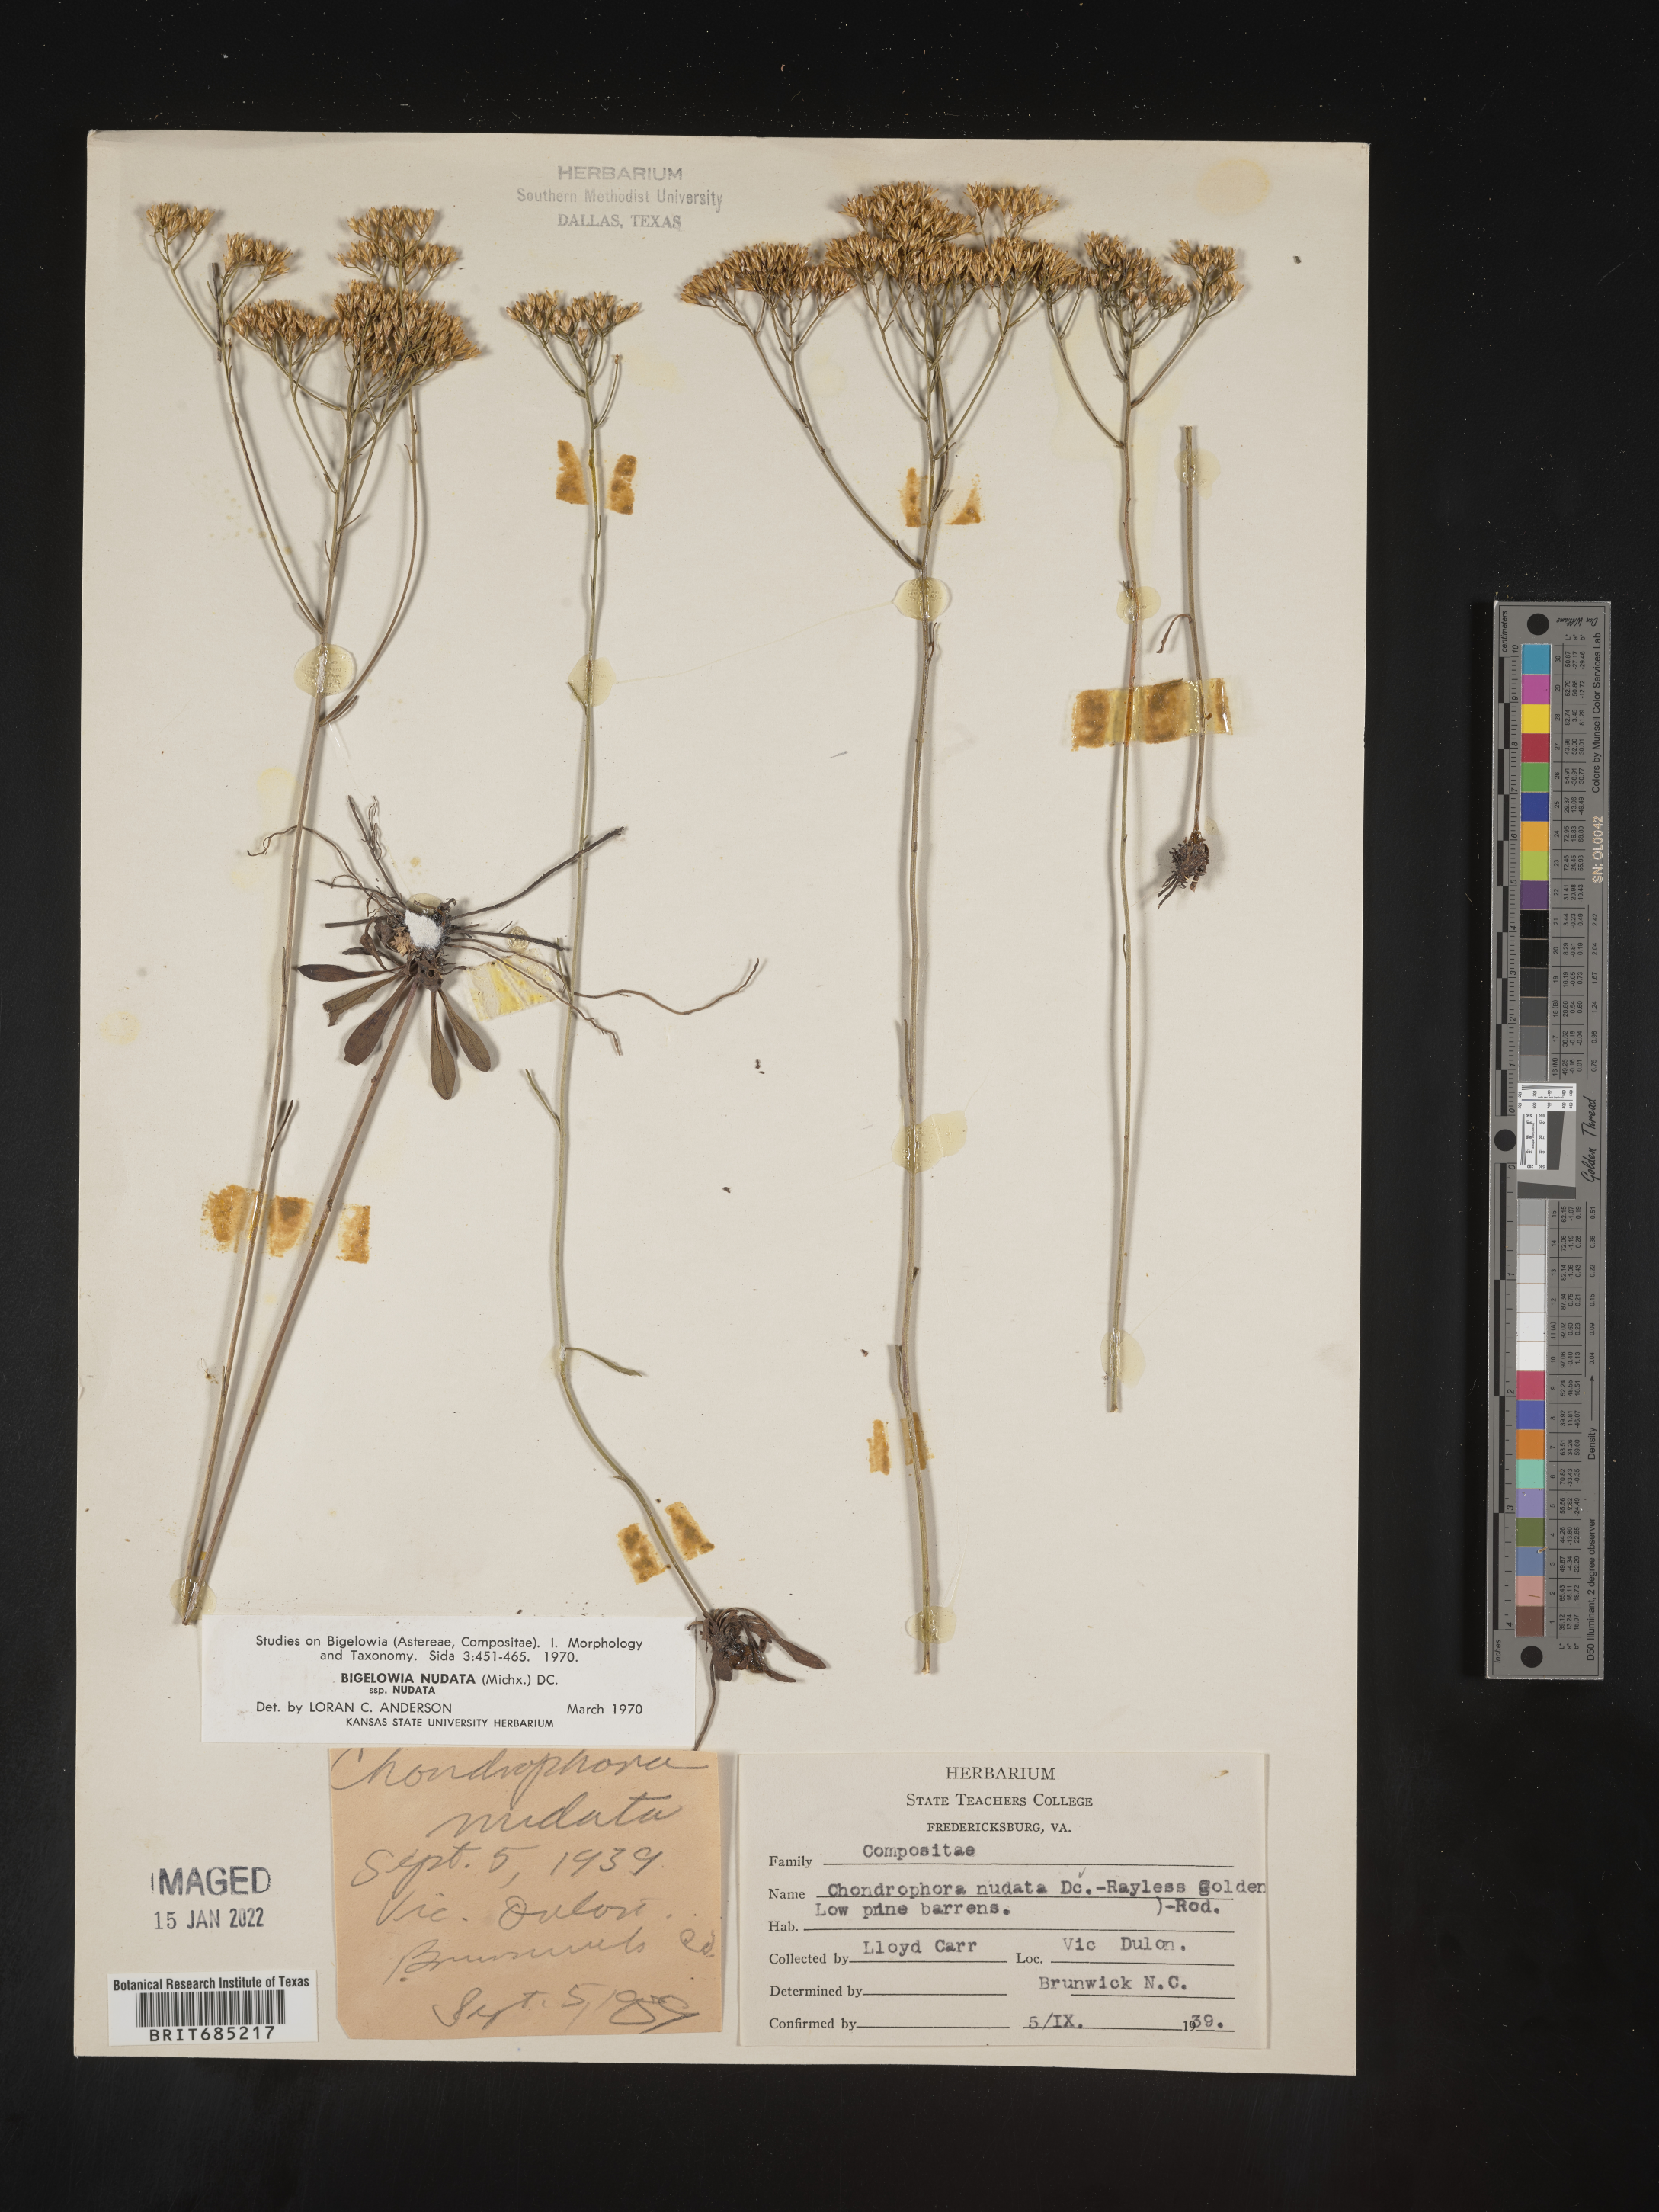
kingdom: Plantae
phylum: Tracheophyta
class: Magnoliopsida
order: Asterales
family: Asteraceae
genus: Bigelowia
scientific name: Bigelowia nudata
